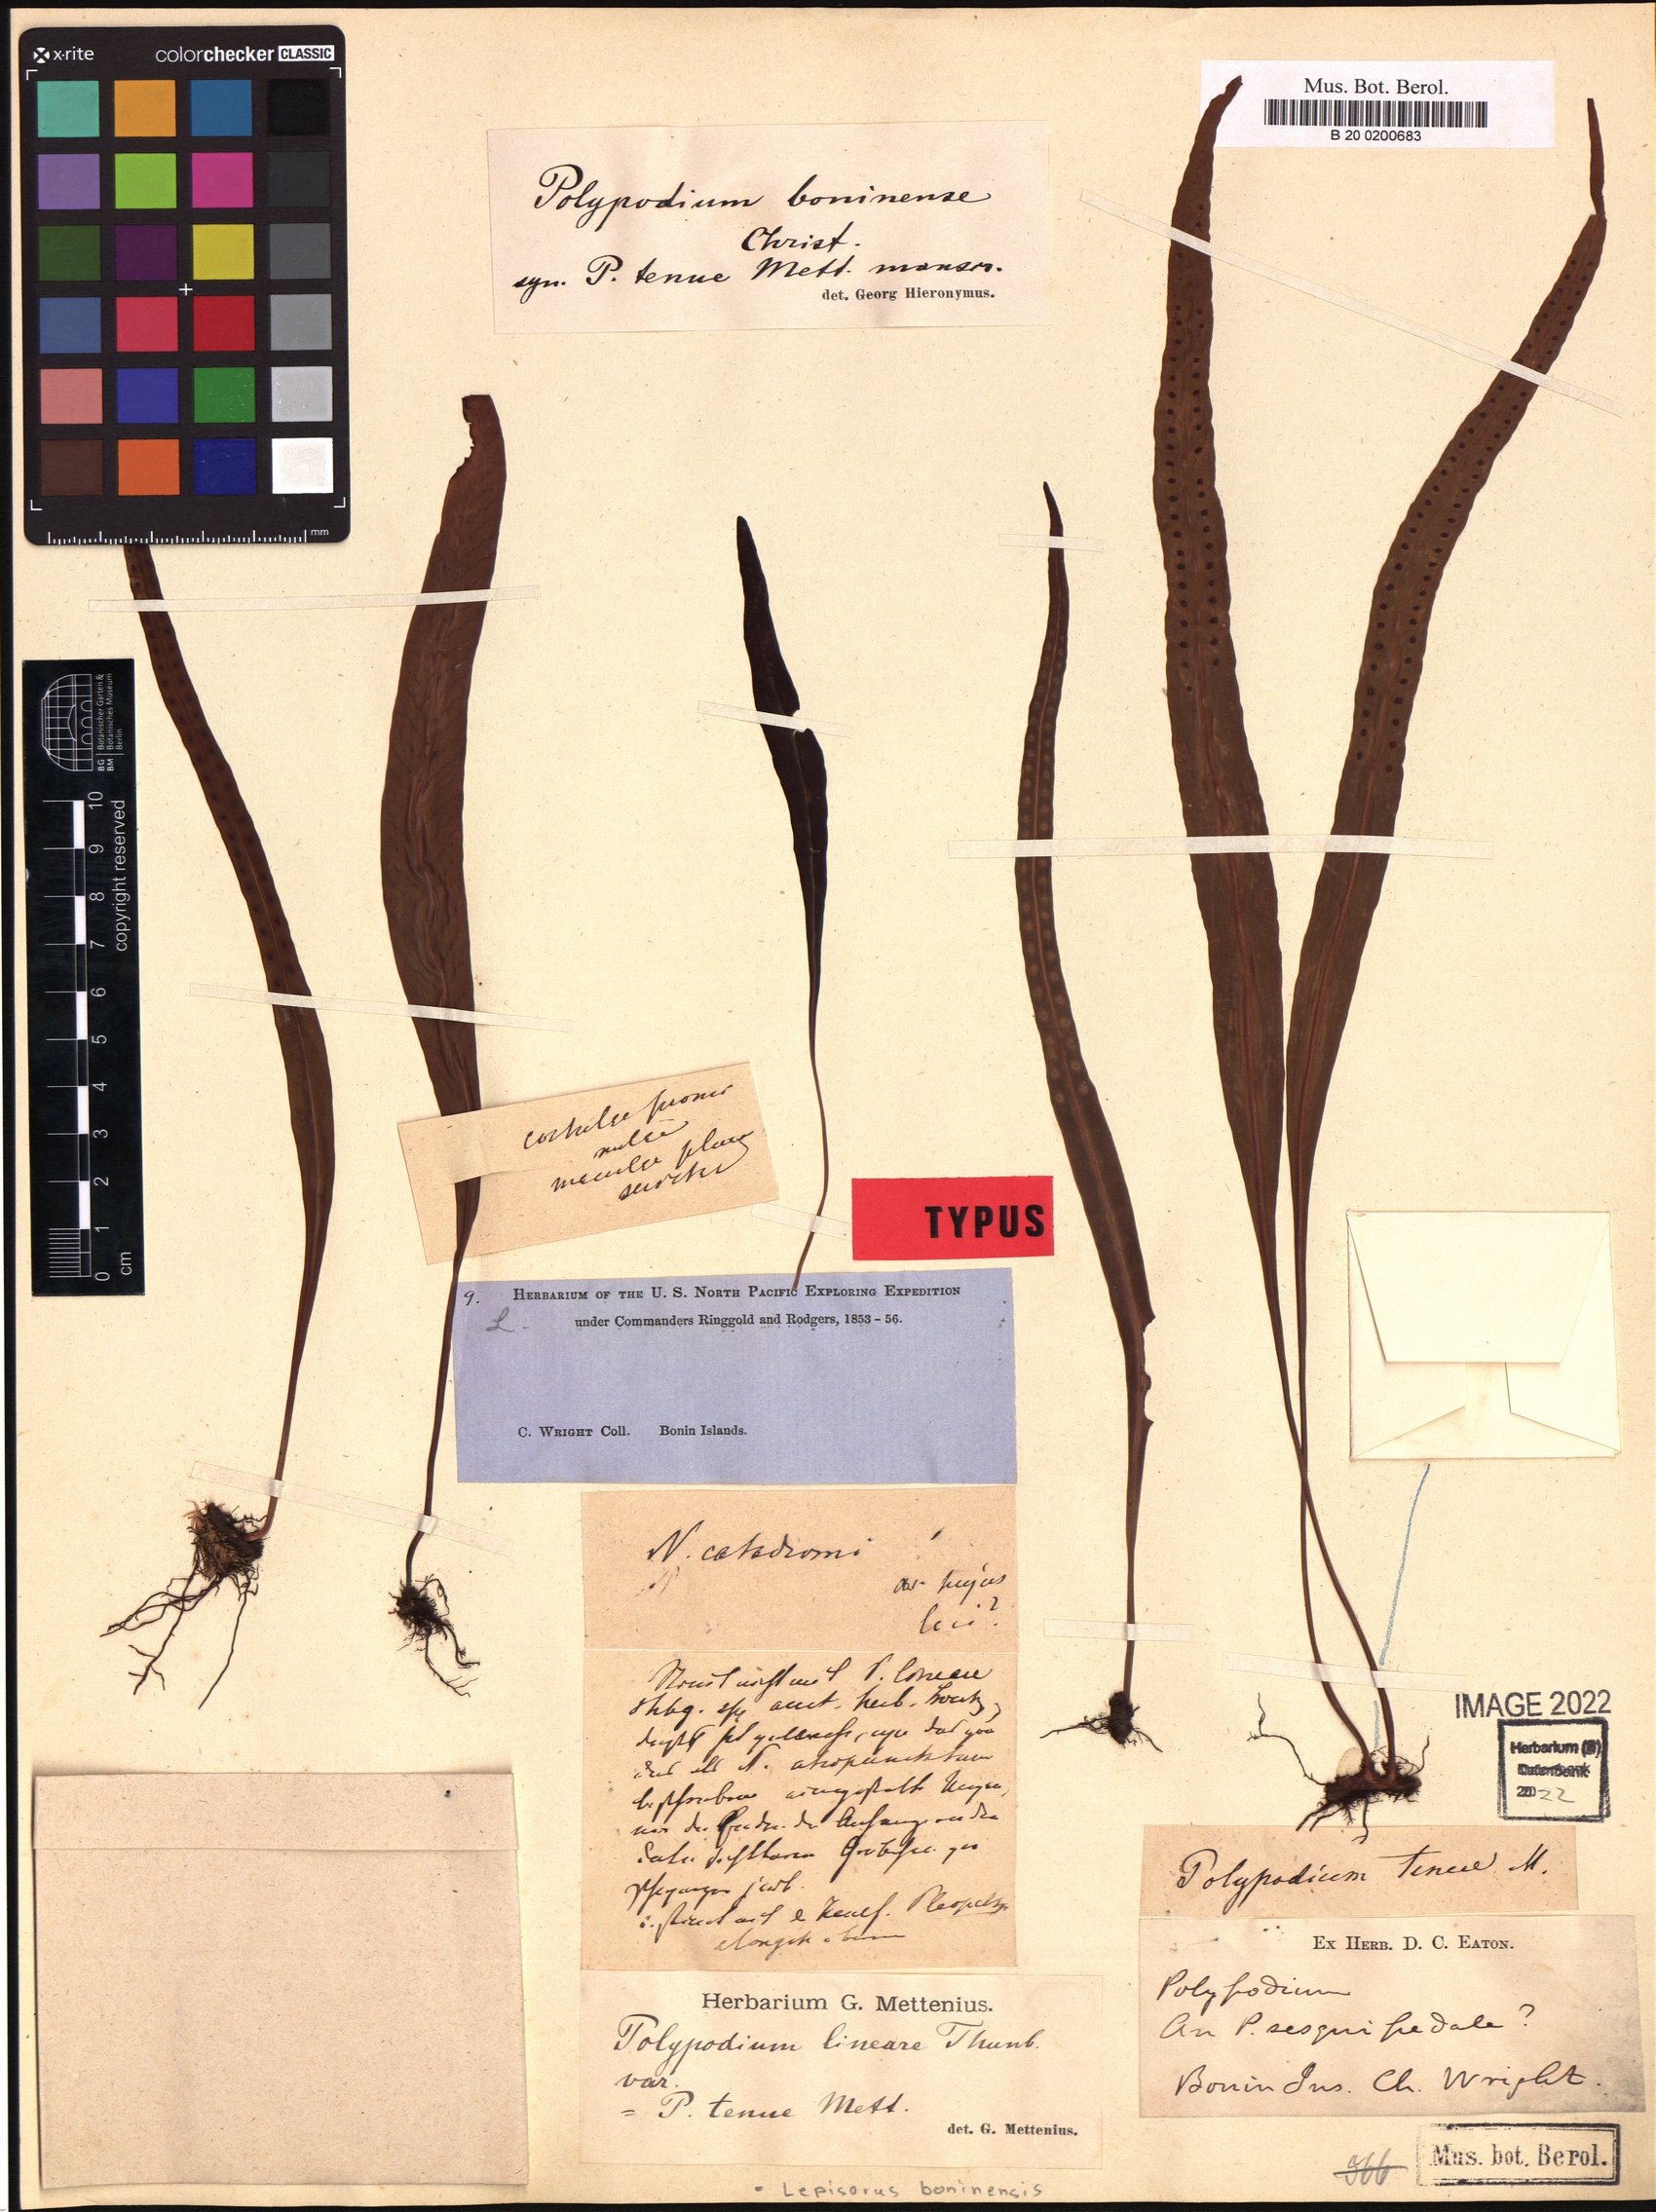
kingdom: Plantae
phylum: Tracheophyta
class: Polypodiopsida
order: Polypodiales
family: Polypodiaceae
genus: Lepisorus
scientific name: Lepisorus boninensis
